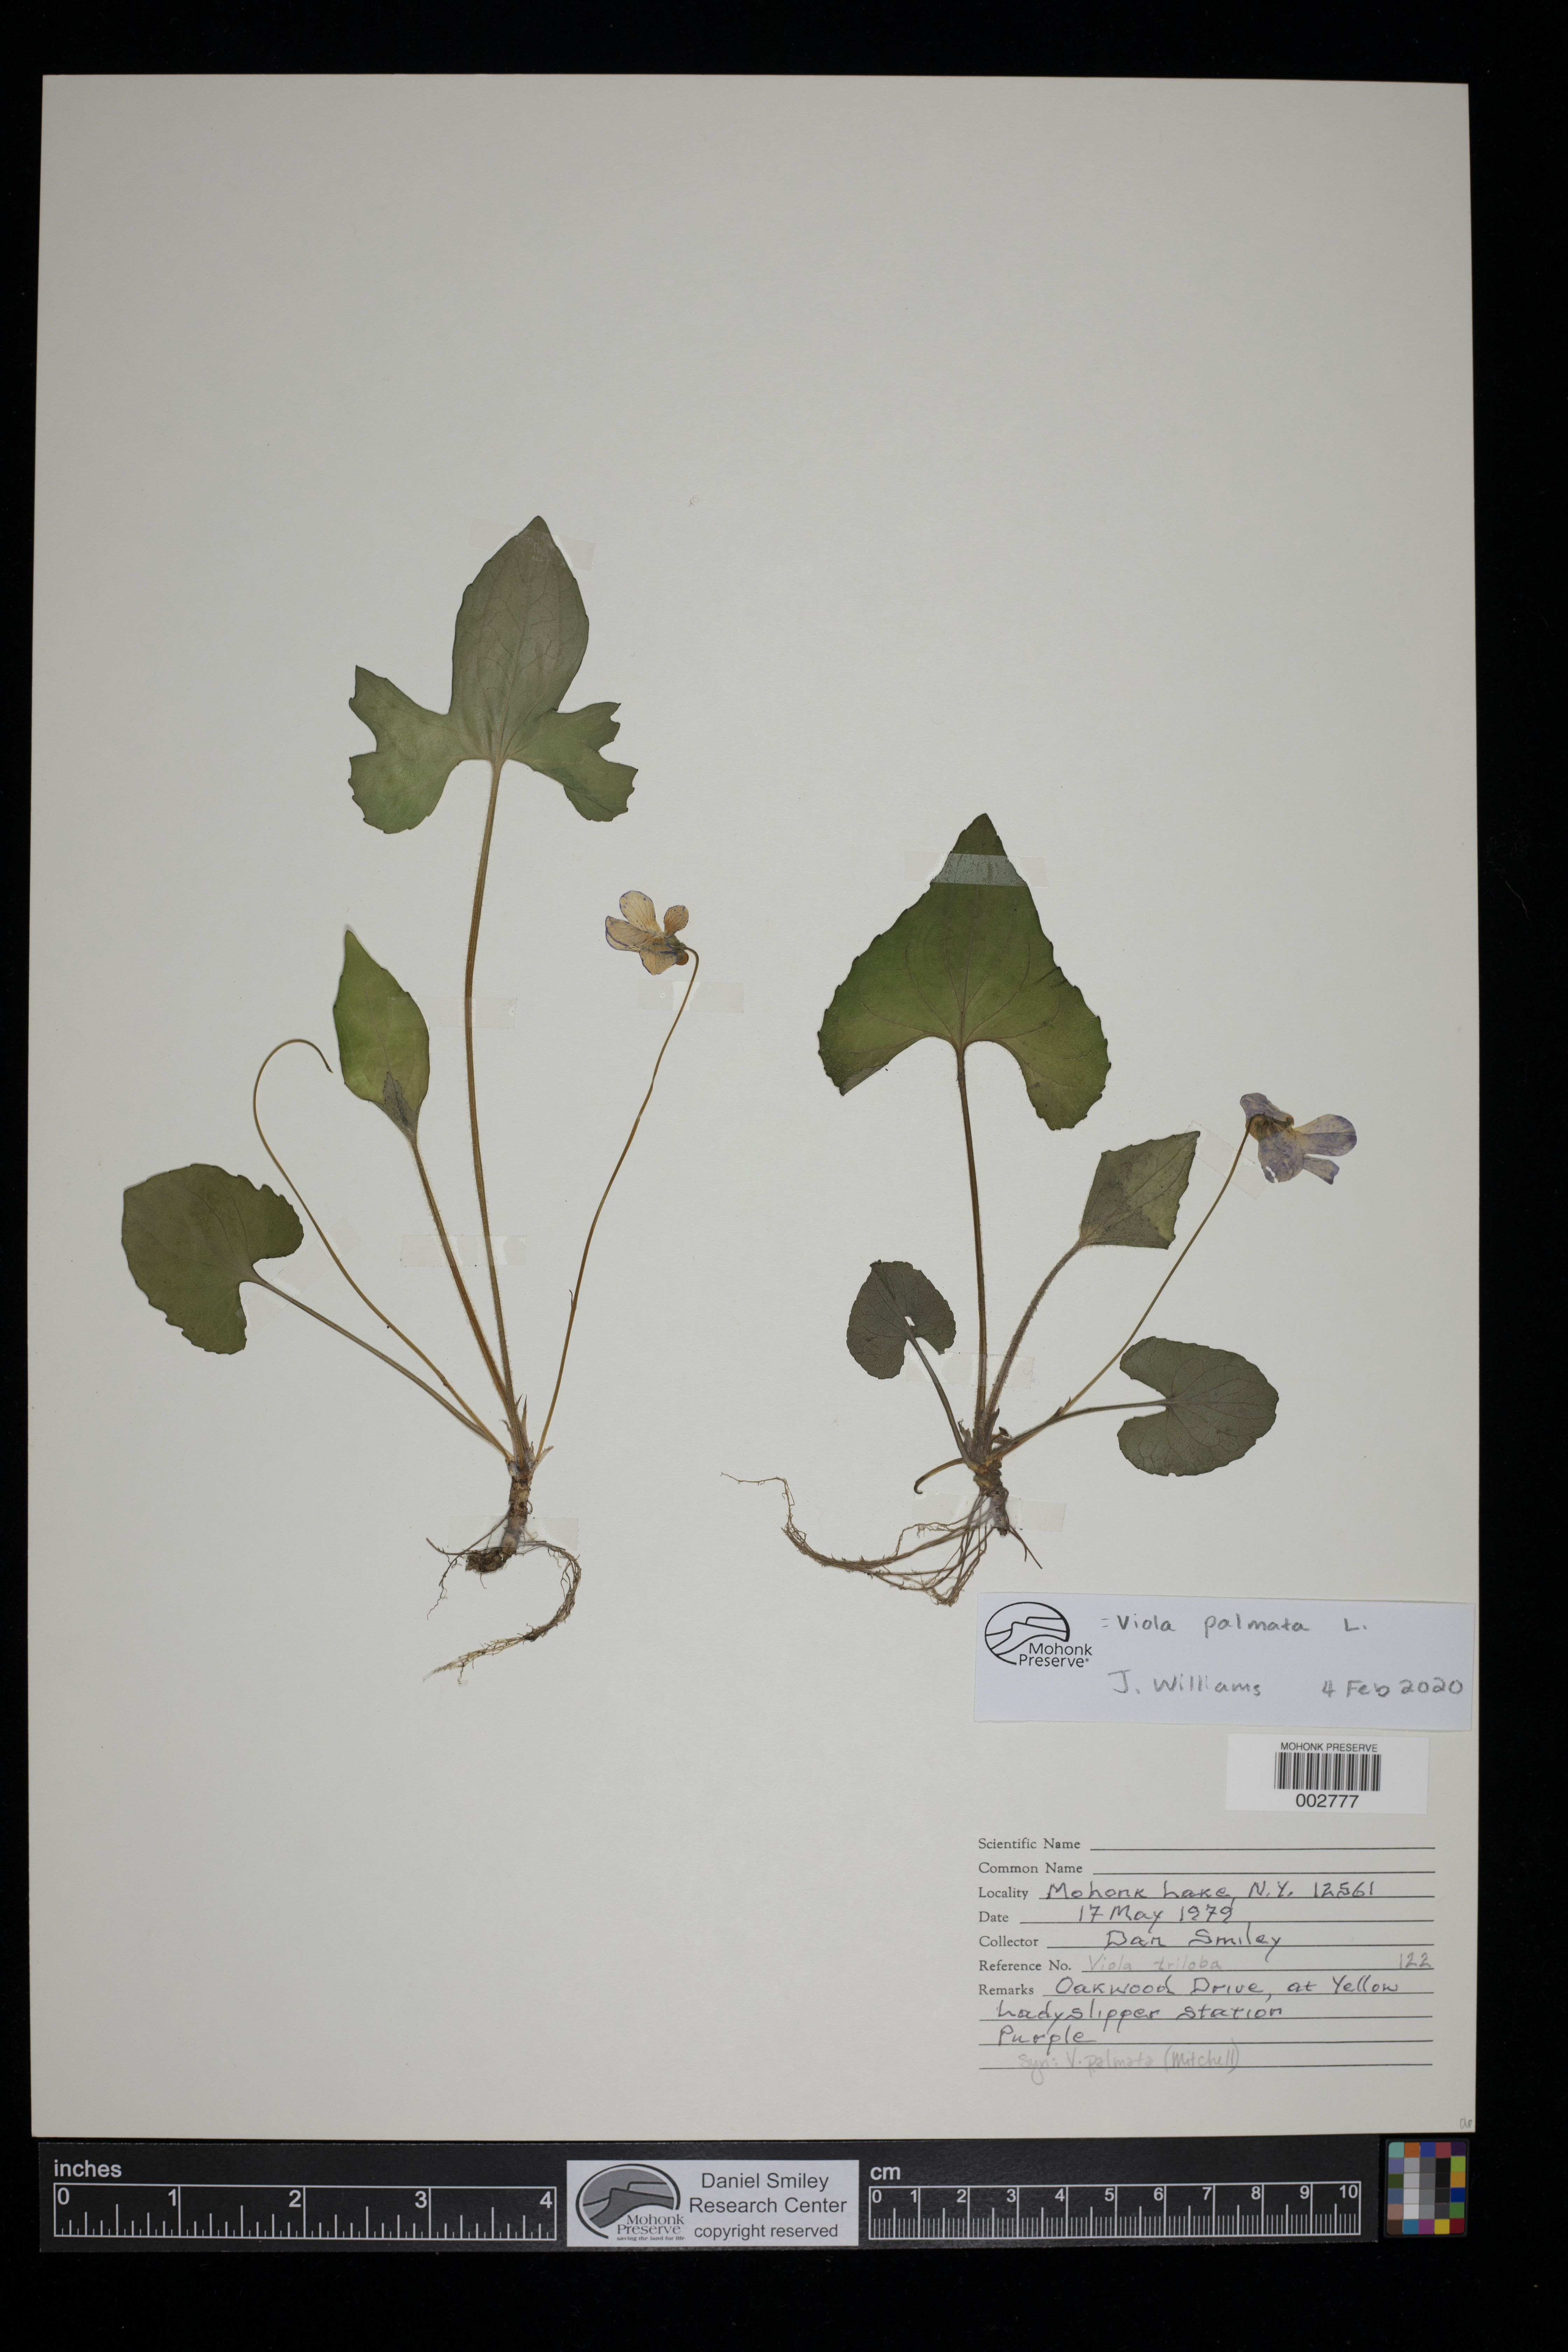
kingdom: Plantae
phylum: Tracheophyta
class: Magnoliopsida
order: Malpighiales
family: Violaceae
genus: Viola
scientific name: Viola palmata
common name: Early blue violet
